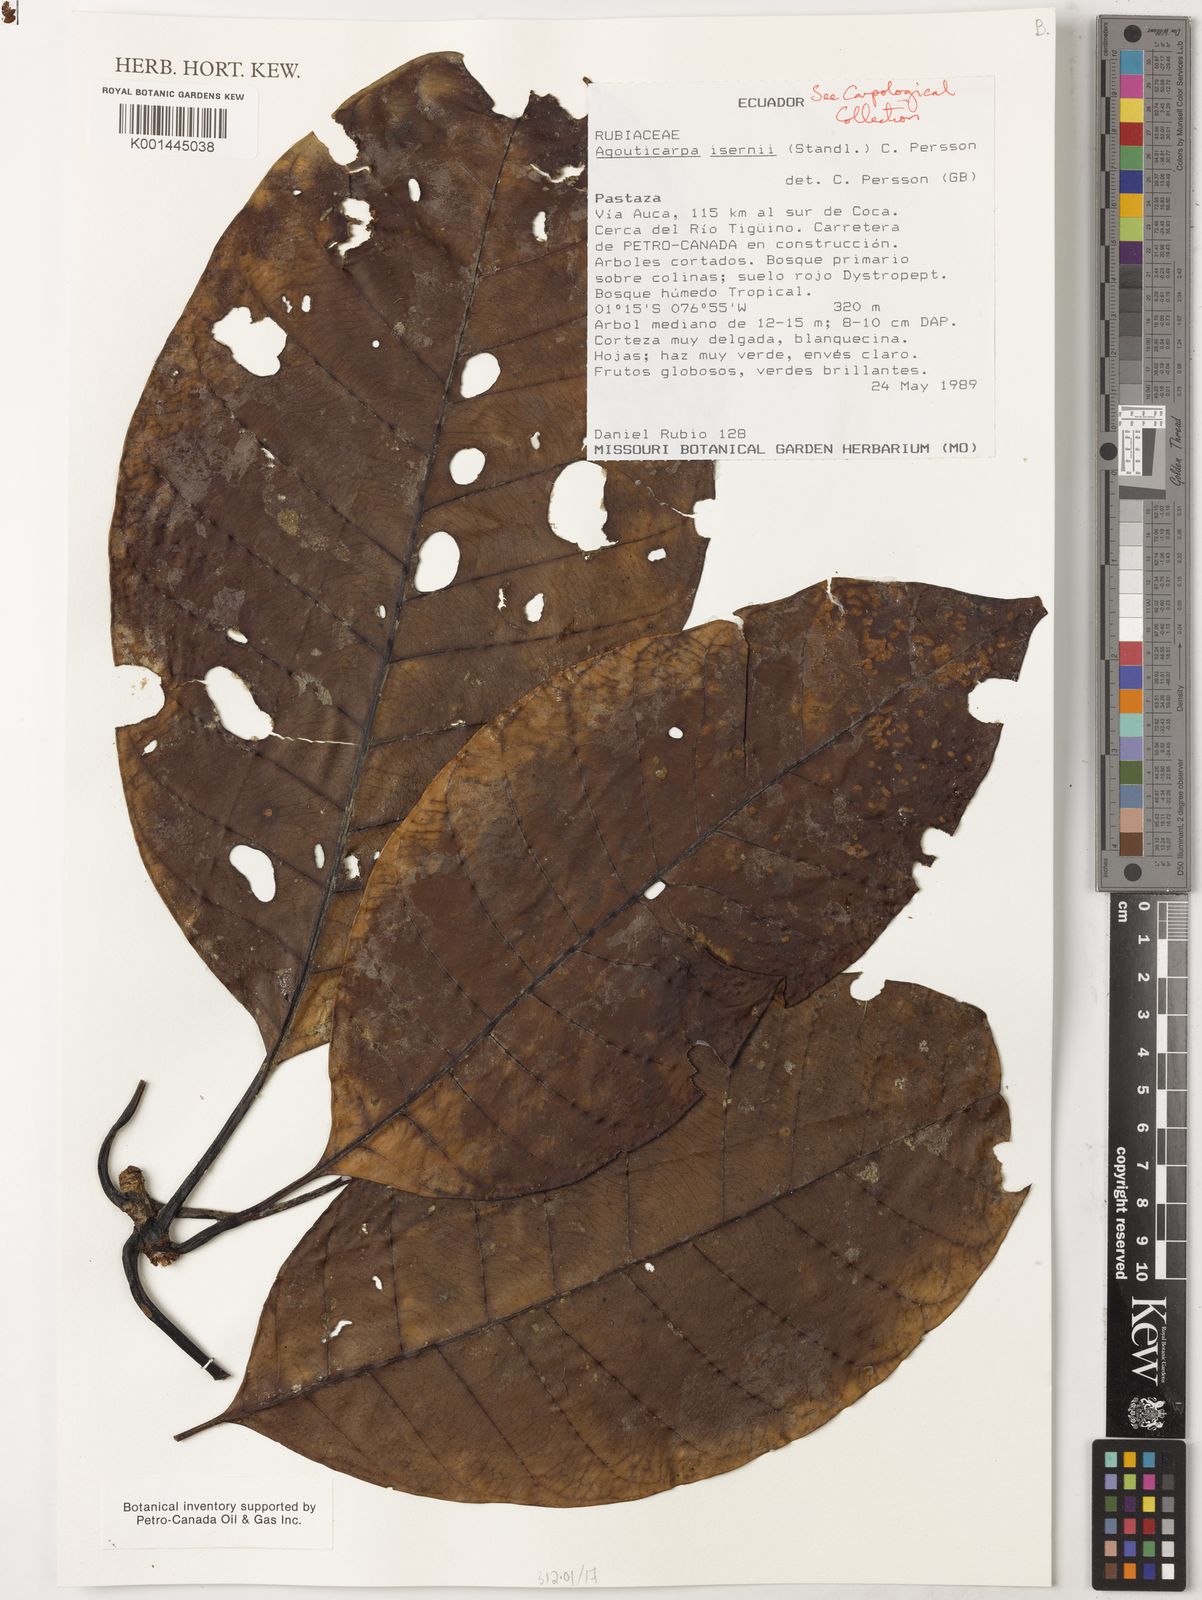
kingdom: Plantae
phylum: Tracheophyta
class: Magnoliopsida
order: Gentianales
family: Rubiaceae
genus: Agouticarpa
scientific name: Agouticarpa isernii
